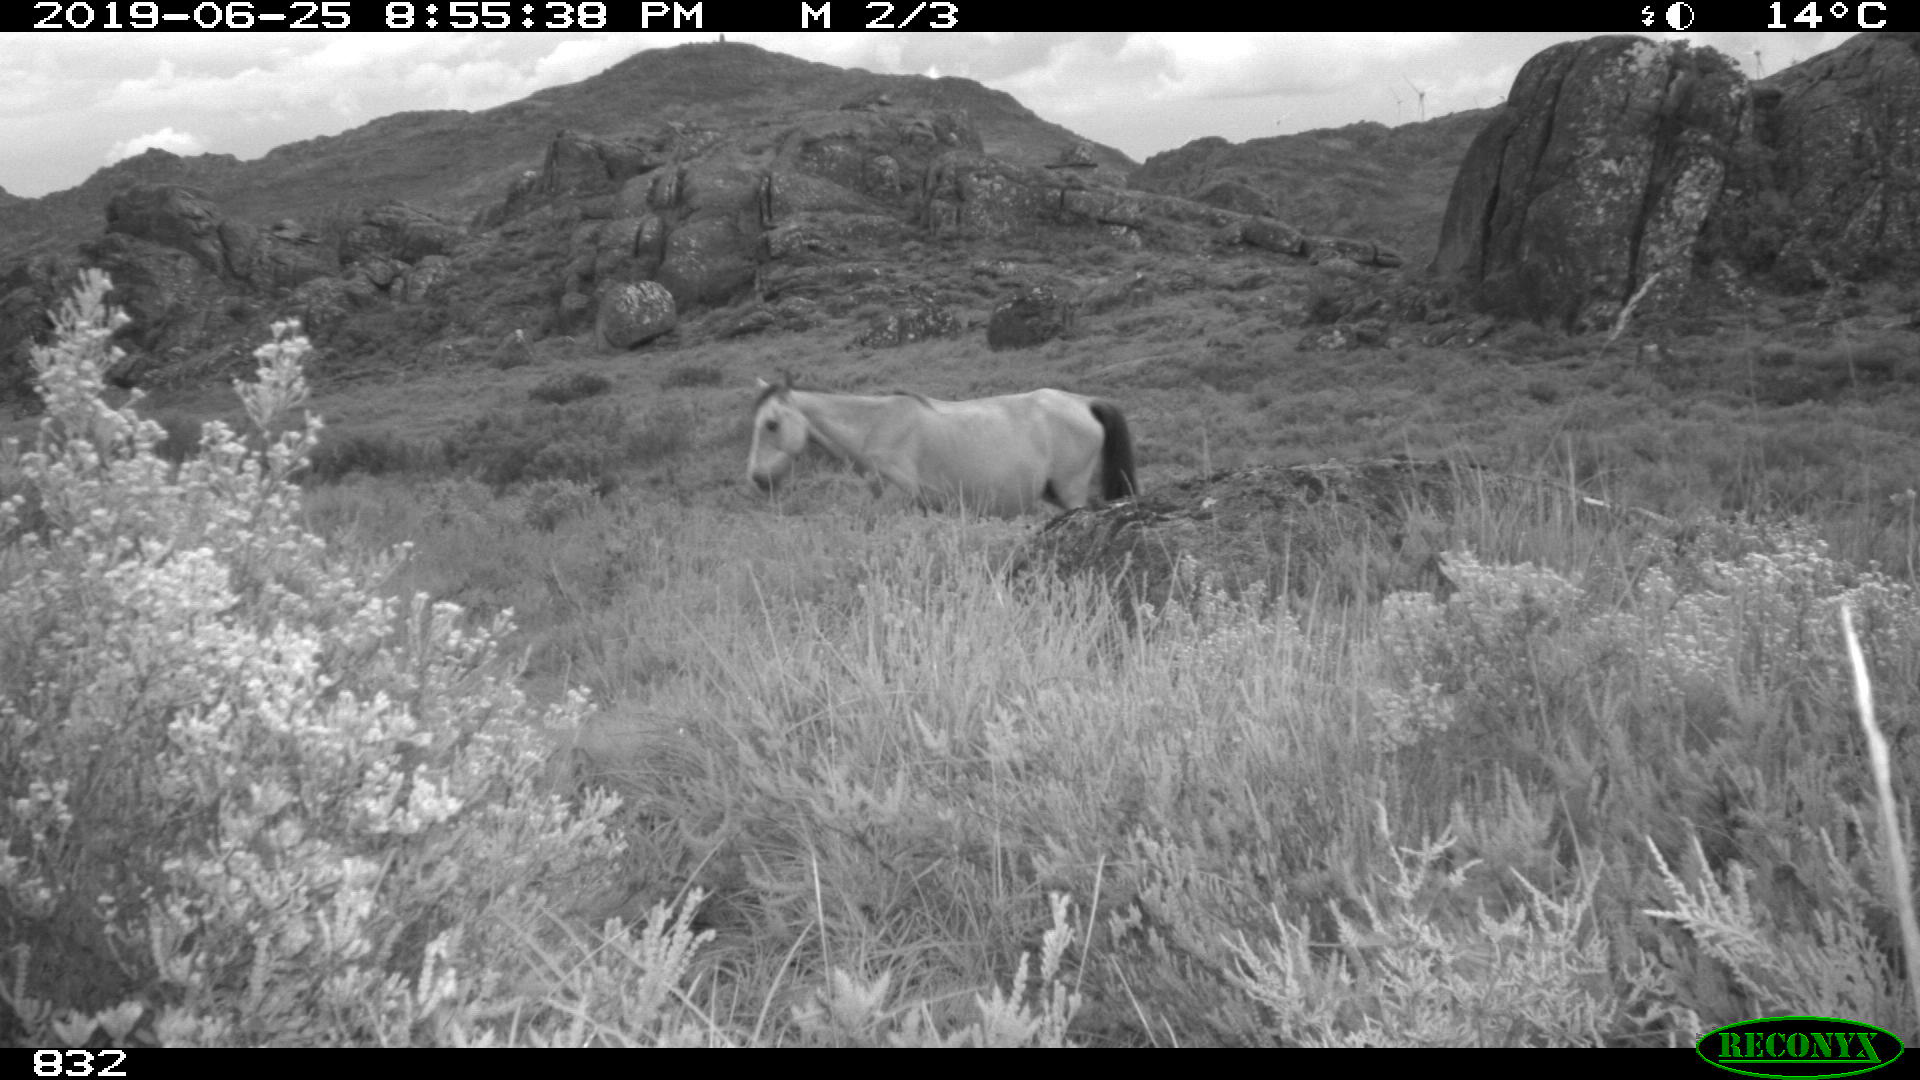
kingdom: Animalia
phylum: Chordata
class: Mammalia
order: Perissodactyla
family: Equidae
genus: Equus
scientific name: Equus caballus
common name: Horse
